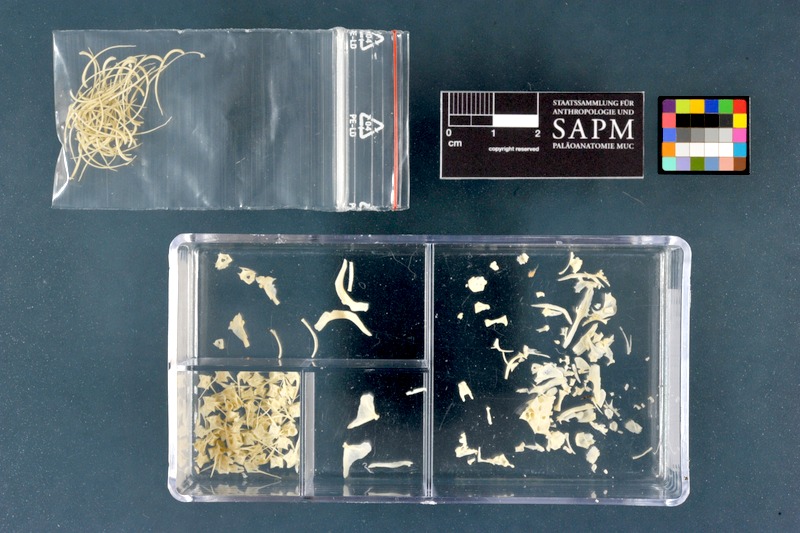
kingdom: Animalia
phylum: Chordata
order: Salmoniformes
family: Salmonidae
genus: Salmo
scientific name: Salmo trutta
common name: Brown trout
